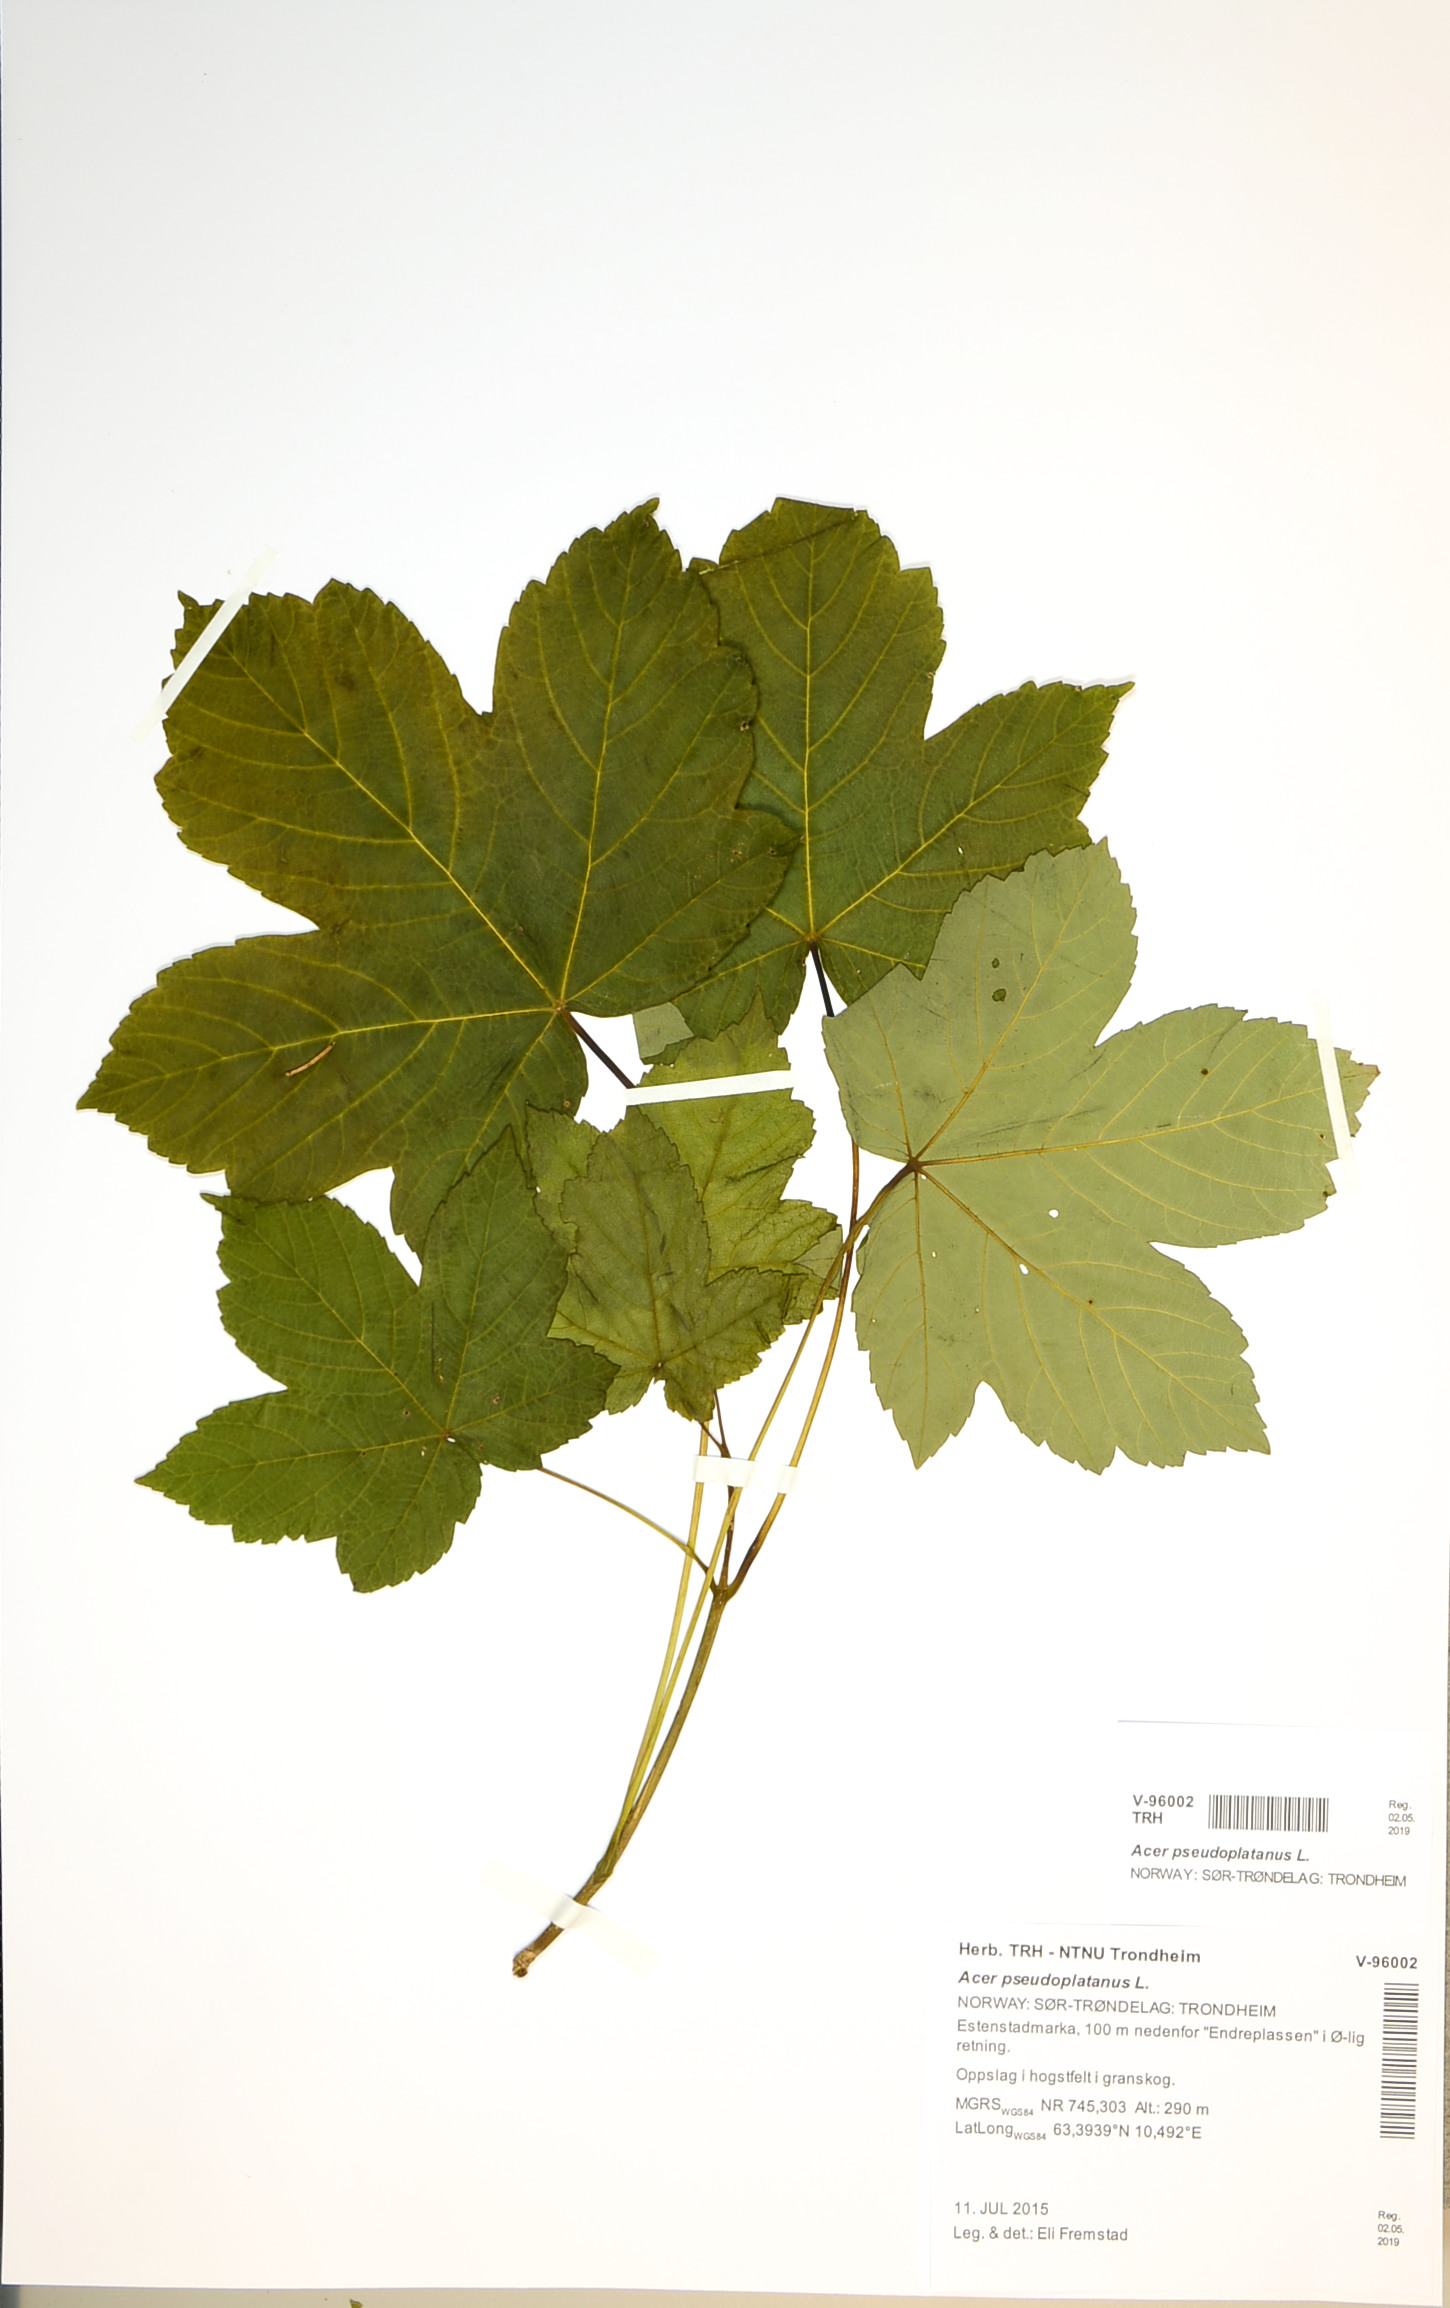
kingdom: Plantae
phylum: Tracheophyta
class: Magnoliopsida
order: Sapindales
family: Sapindaceae
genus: Acer
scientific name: Acer pseudoplatanus
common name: Sycamore
